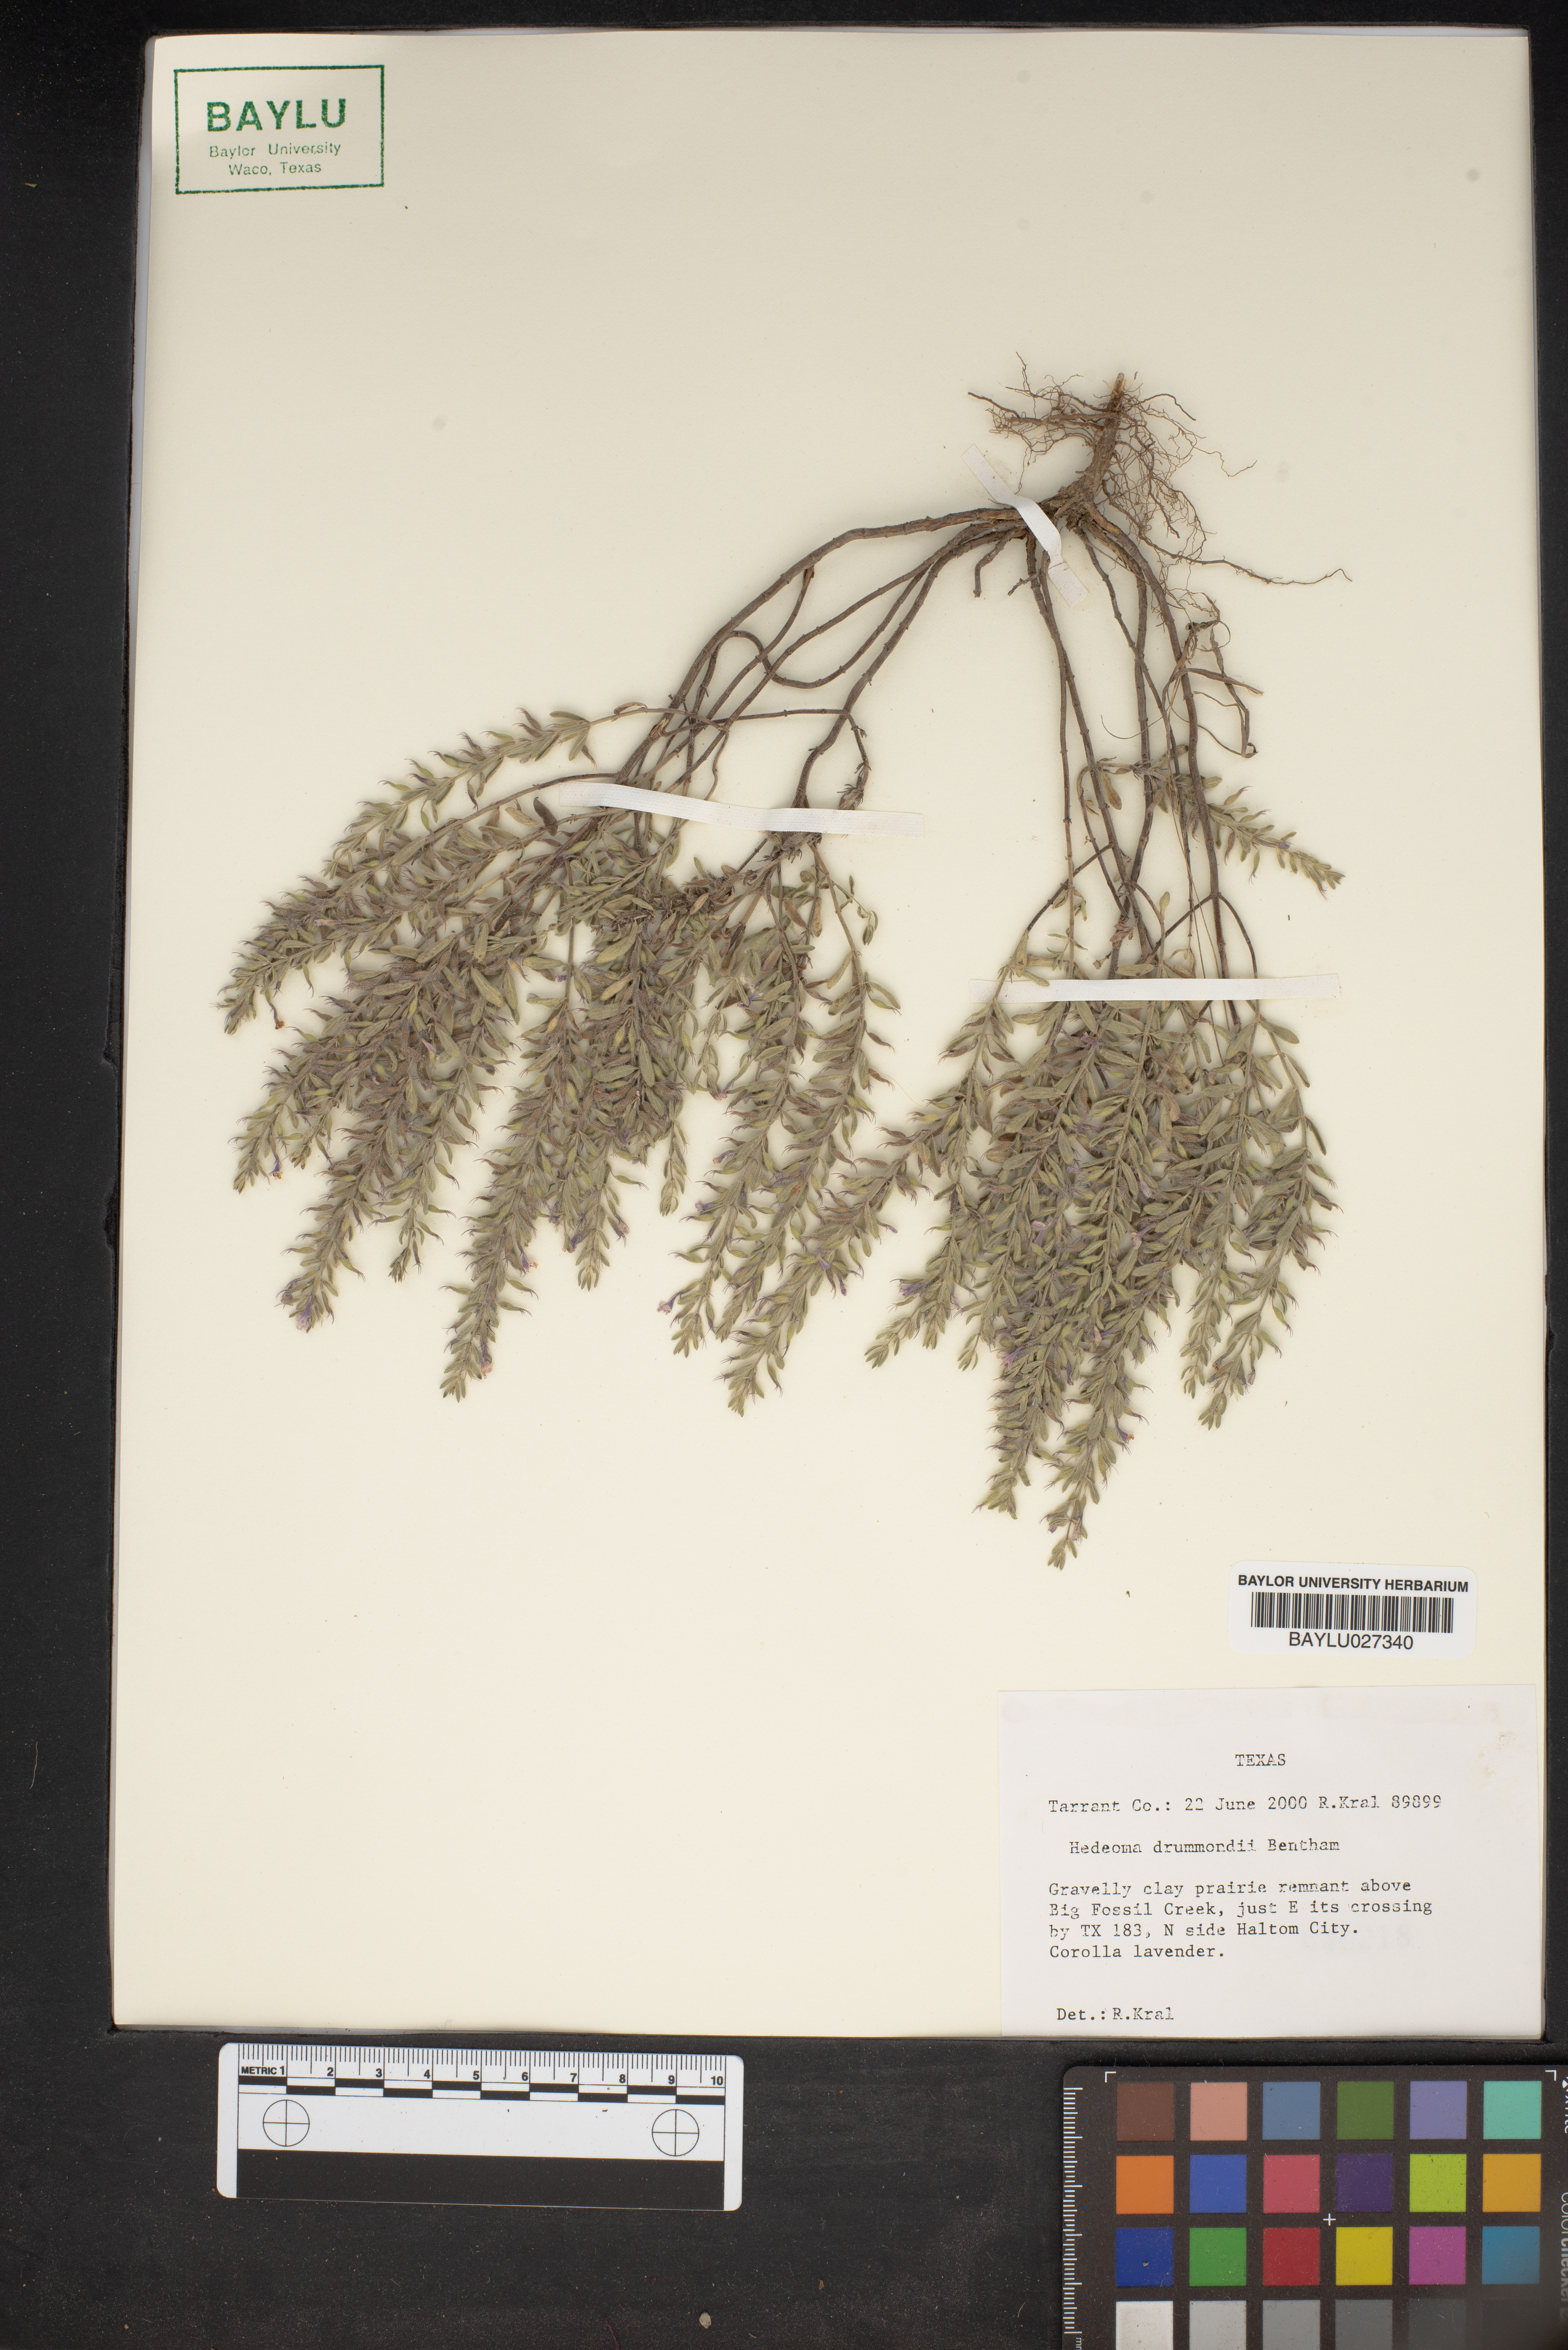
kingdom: Plantae
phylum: Tracheophyta
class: Magnoliopsida
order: Lamiales
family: Lamiaceae
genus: Hedeoma
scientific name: Hedeoma drummondii
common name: New mexico pennyroyal
